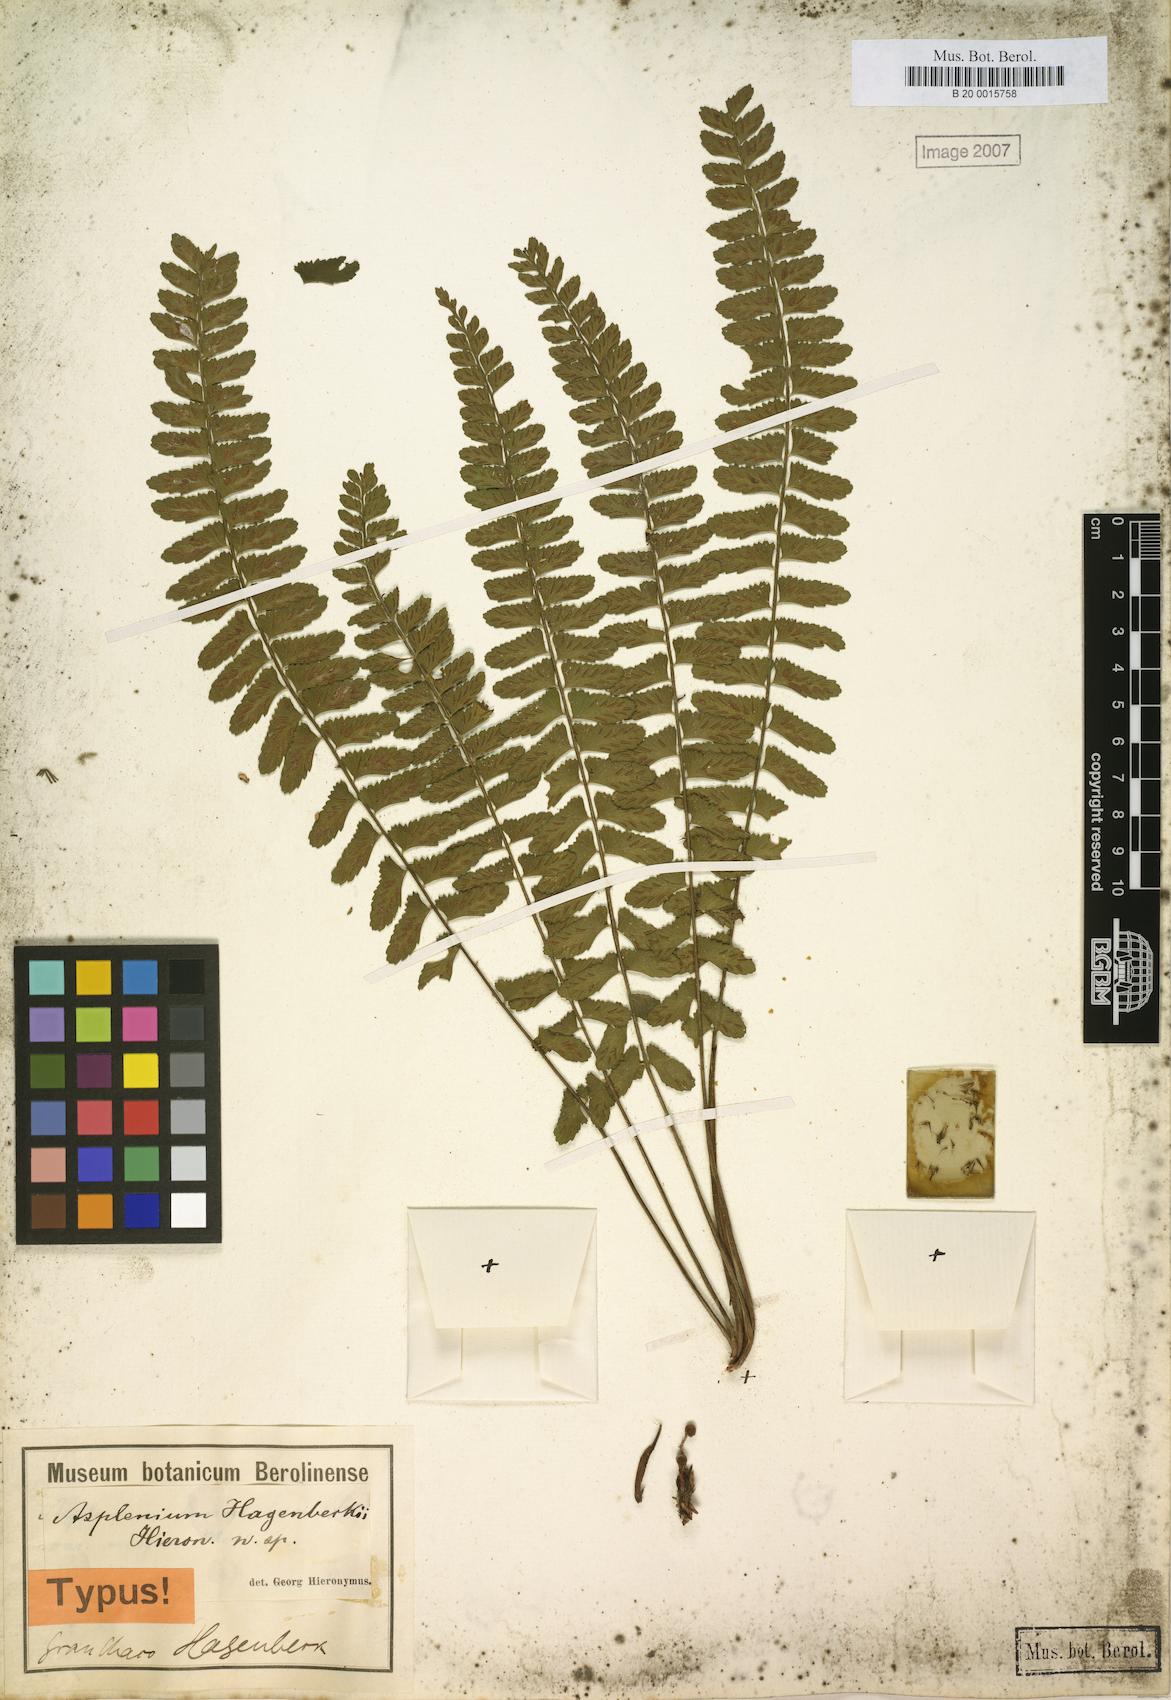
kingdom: Plantae
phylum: Tracheophyta
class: Polypodiopsida
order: Polypodiales
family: Aspleniaceae
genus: Asplenium
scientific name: Asplenium hagenbeckii
